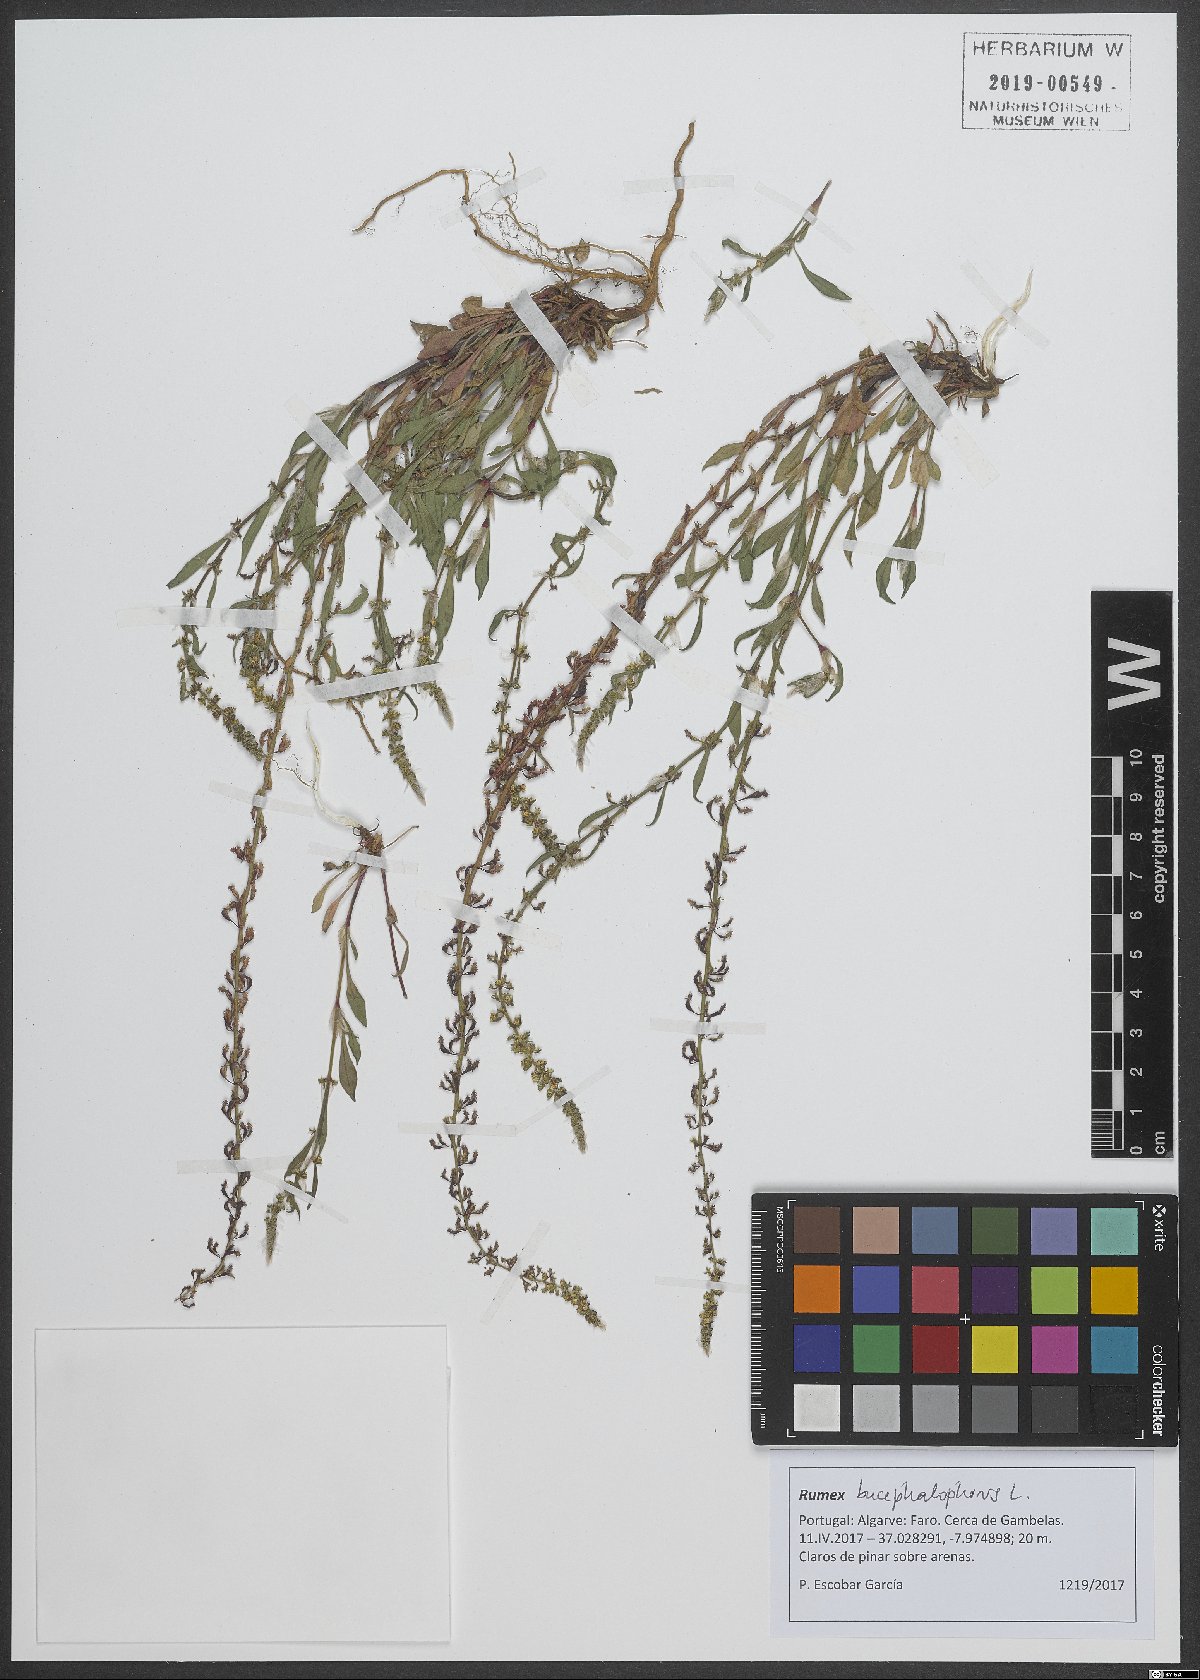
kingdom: Plantae
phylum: Tracheophyta
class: Magnoliopsida
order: Caryophyllales
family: Polygonaceae
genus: Rumex
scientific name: Rumex bucephalophorus
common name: Red dock
